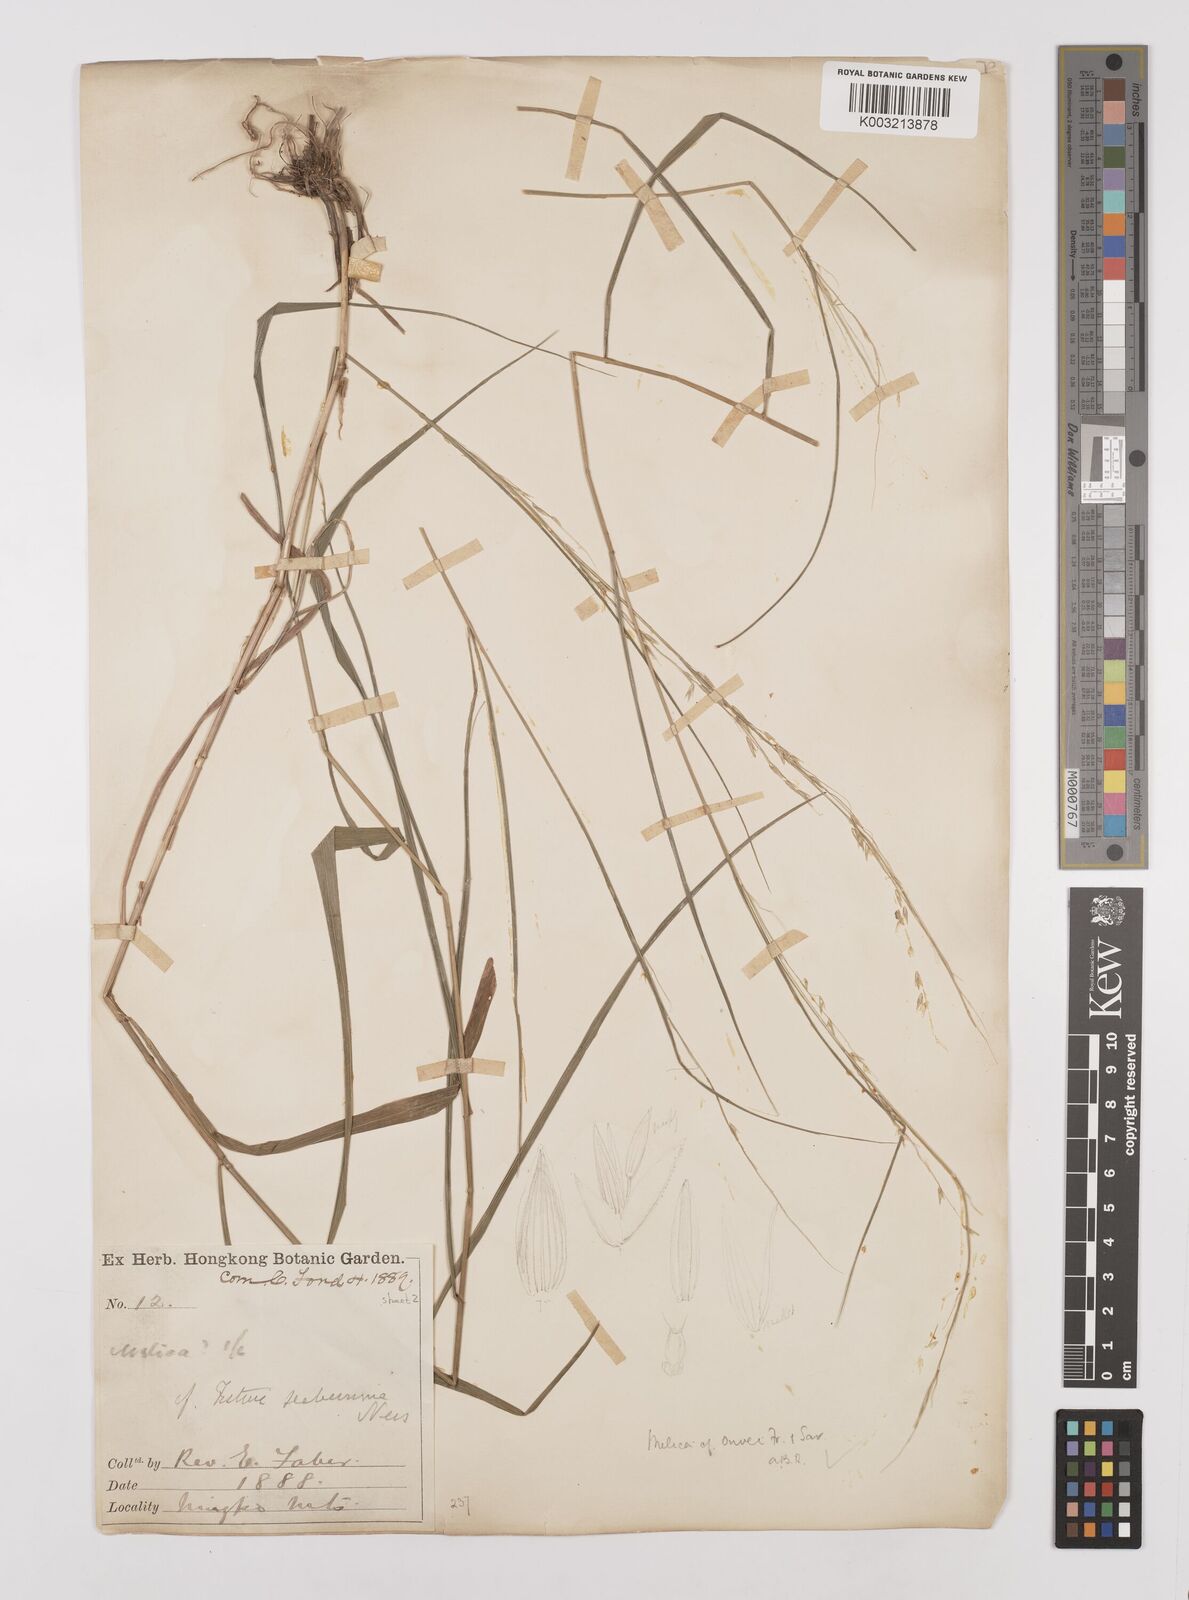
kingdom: Plantae
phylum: Tracheophyta
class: Liliopsida
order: Poales
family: Poaceae
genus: Melica
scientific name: Melica onoei
